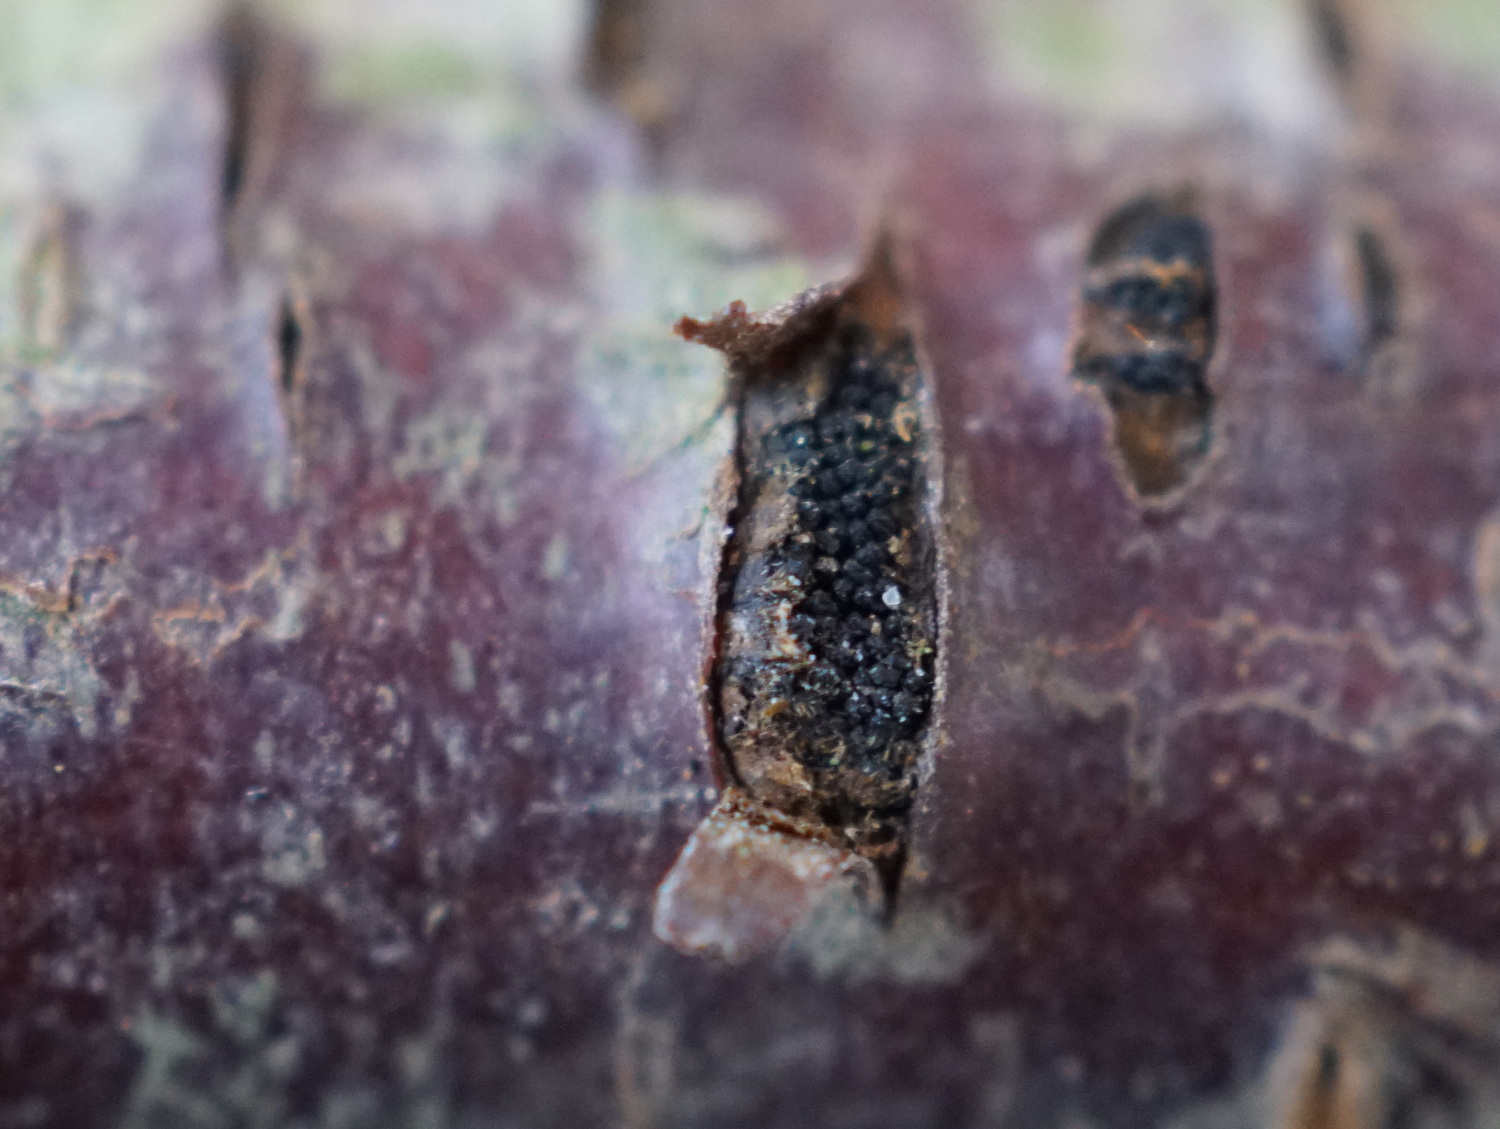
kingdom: Fungi
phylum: Ascomycota
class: Sordariomycetes
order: Xylariales
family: Diatrypaceae
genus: Eutypella
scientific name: Eutypella prunastri
